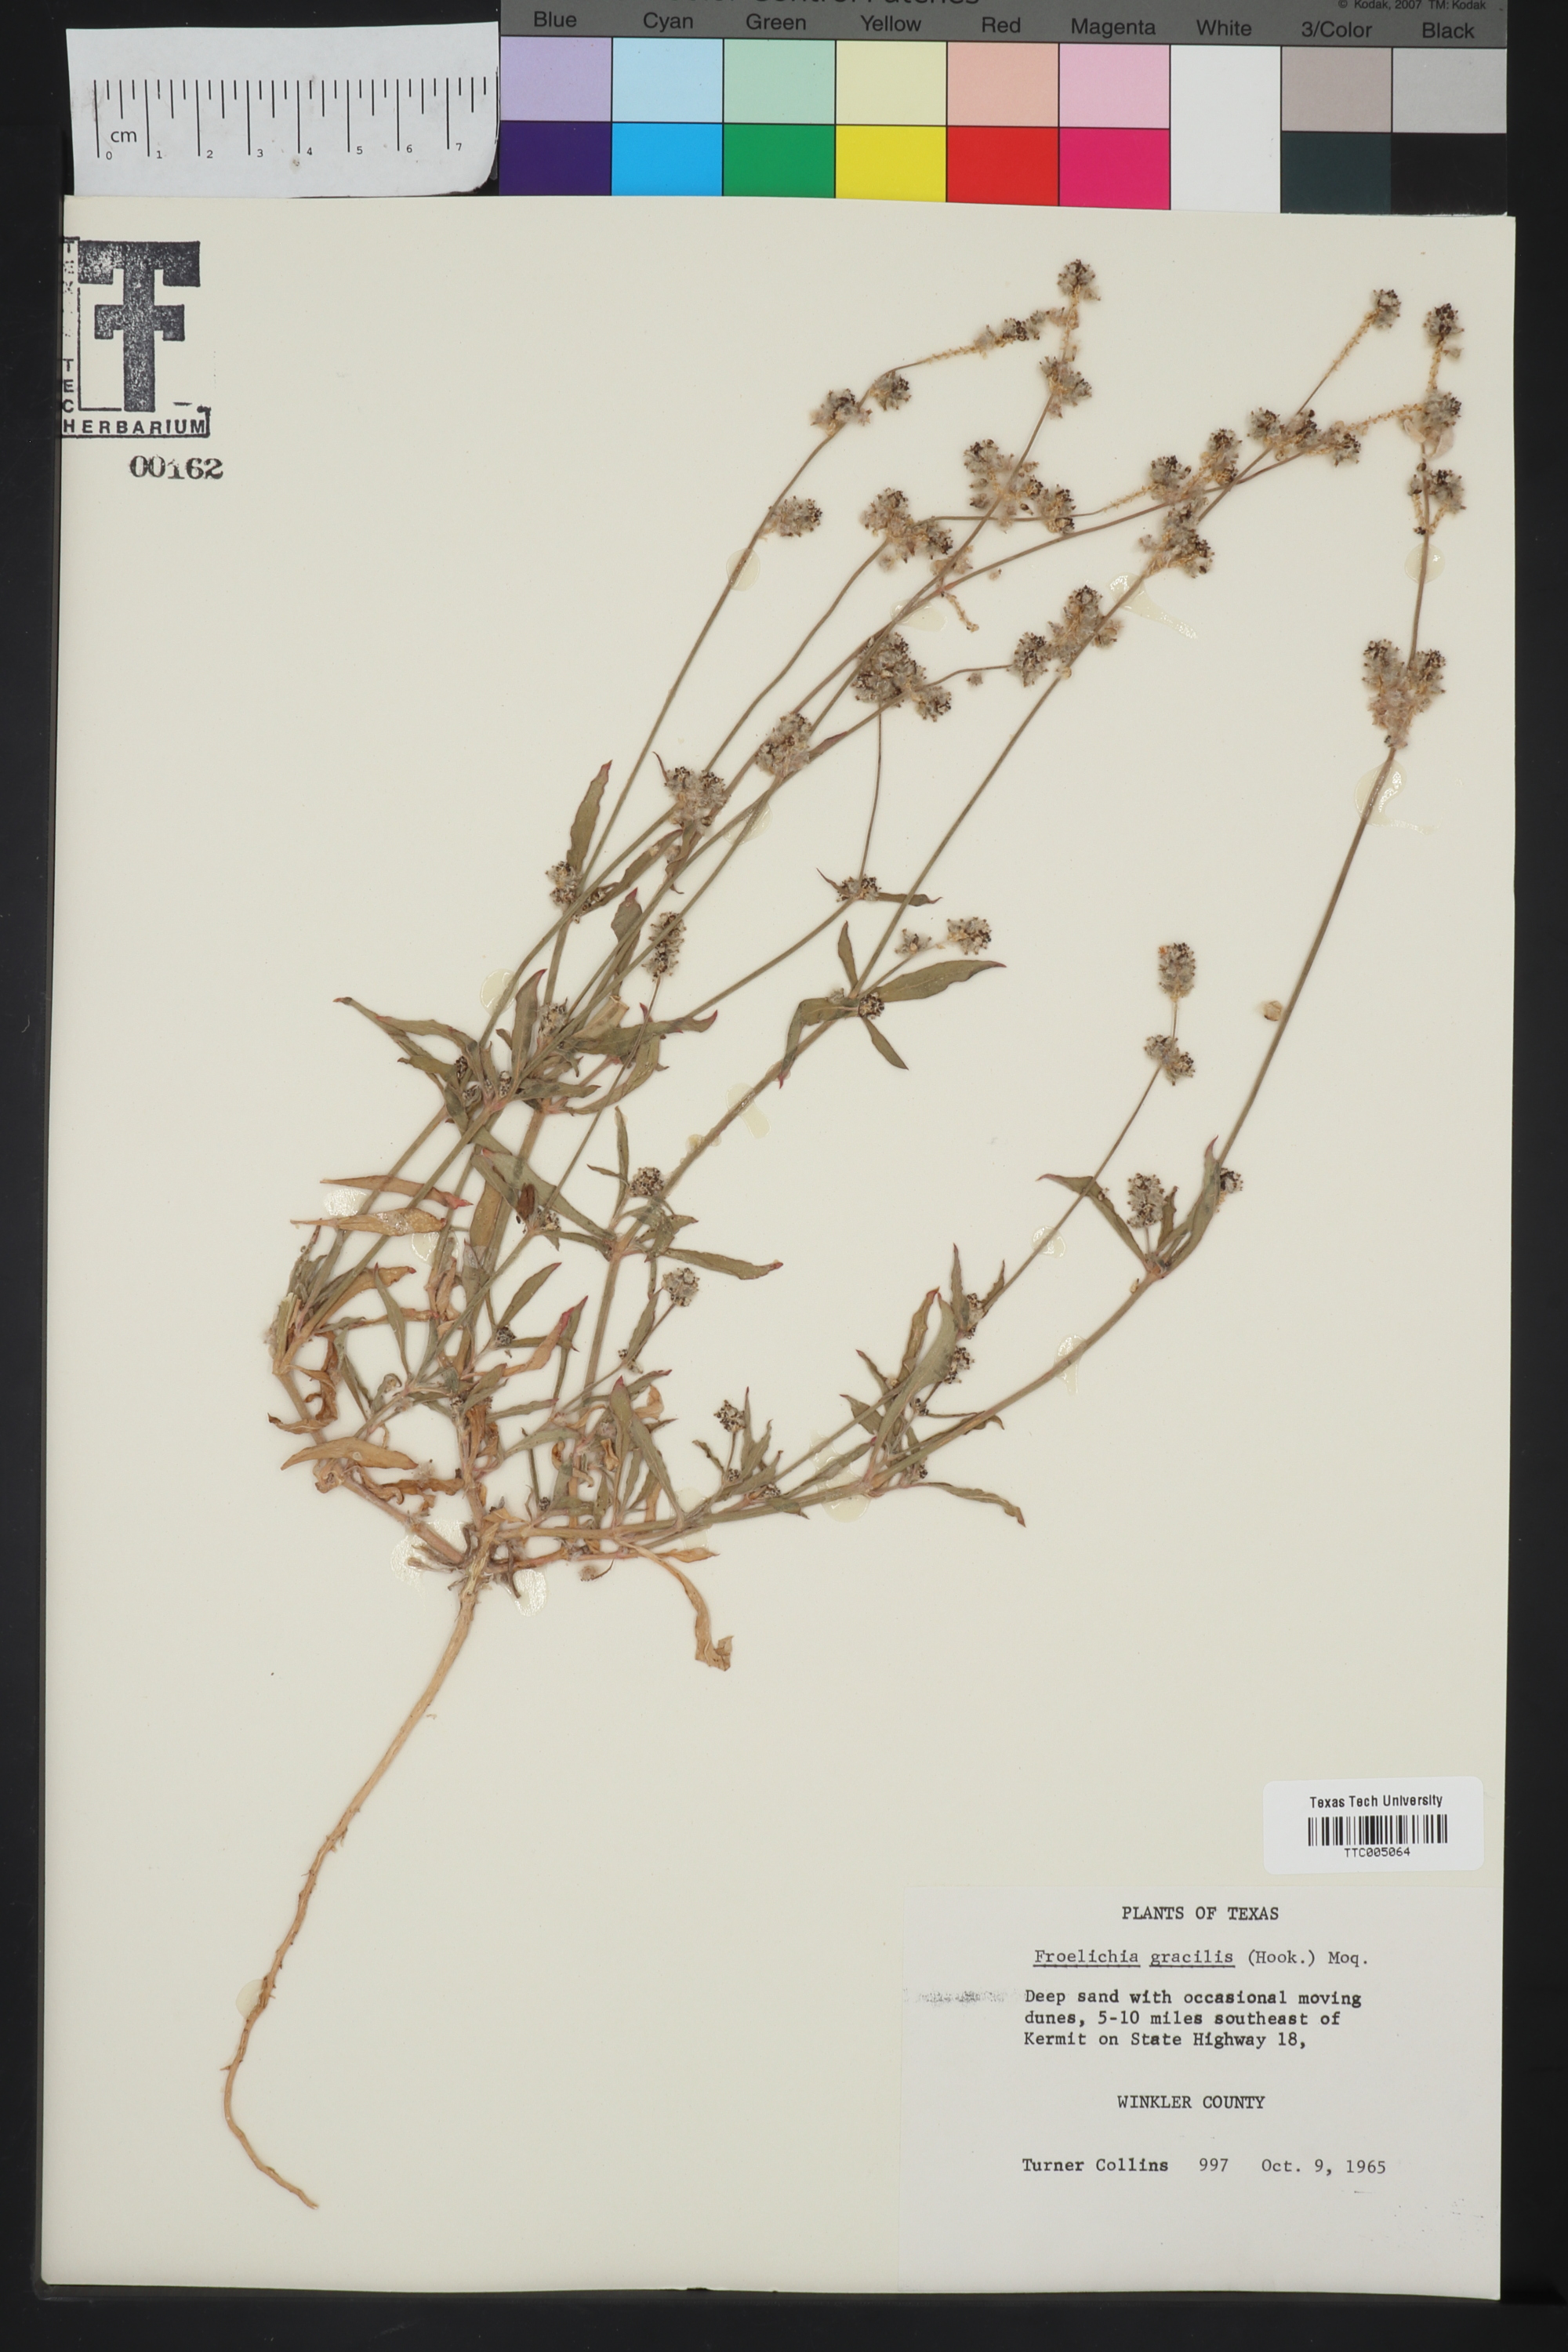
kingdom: Plantae
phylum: Tracheophyta
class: Magnoliopsida
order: Caryophyllales
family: Amaranthaceae
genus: Froelichia
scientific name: Froelichia gracilis
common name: Slender cottonweed
